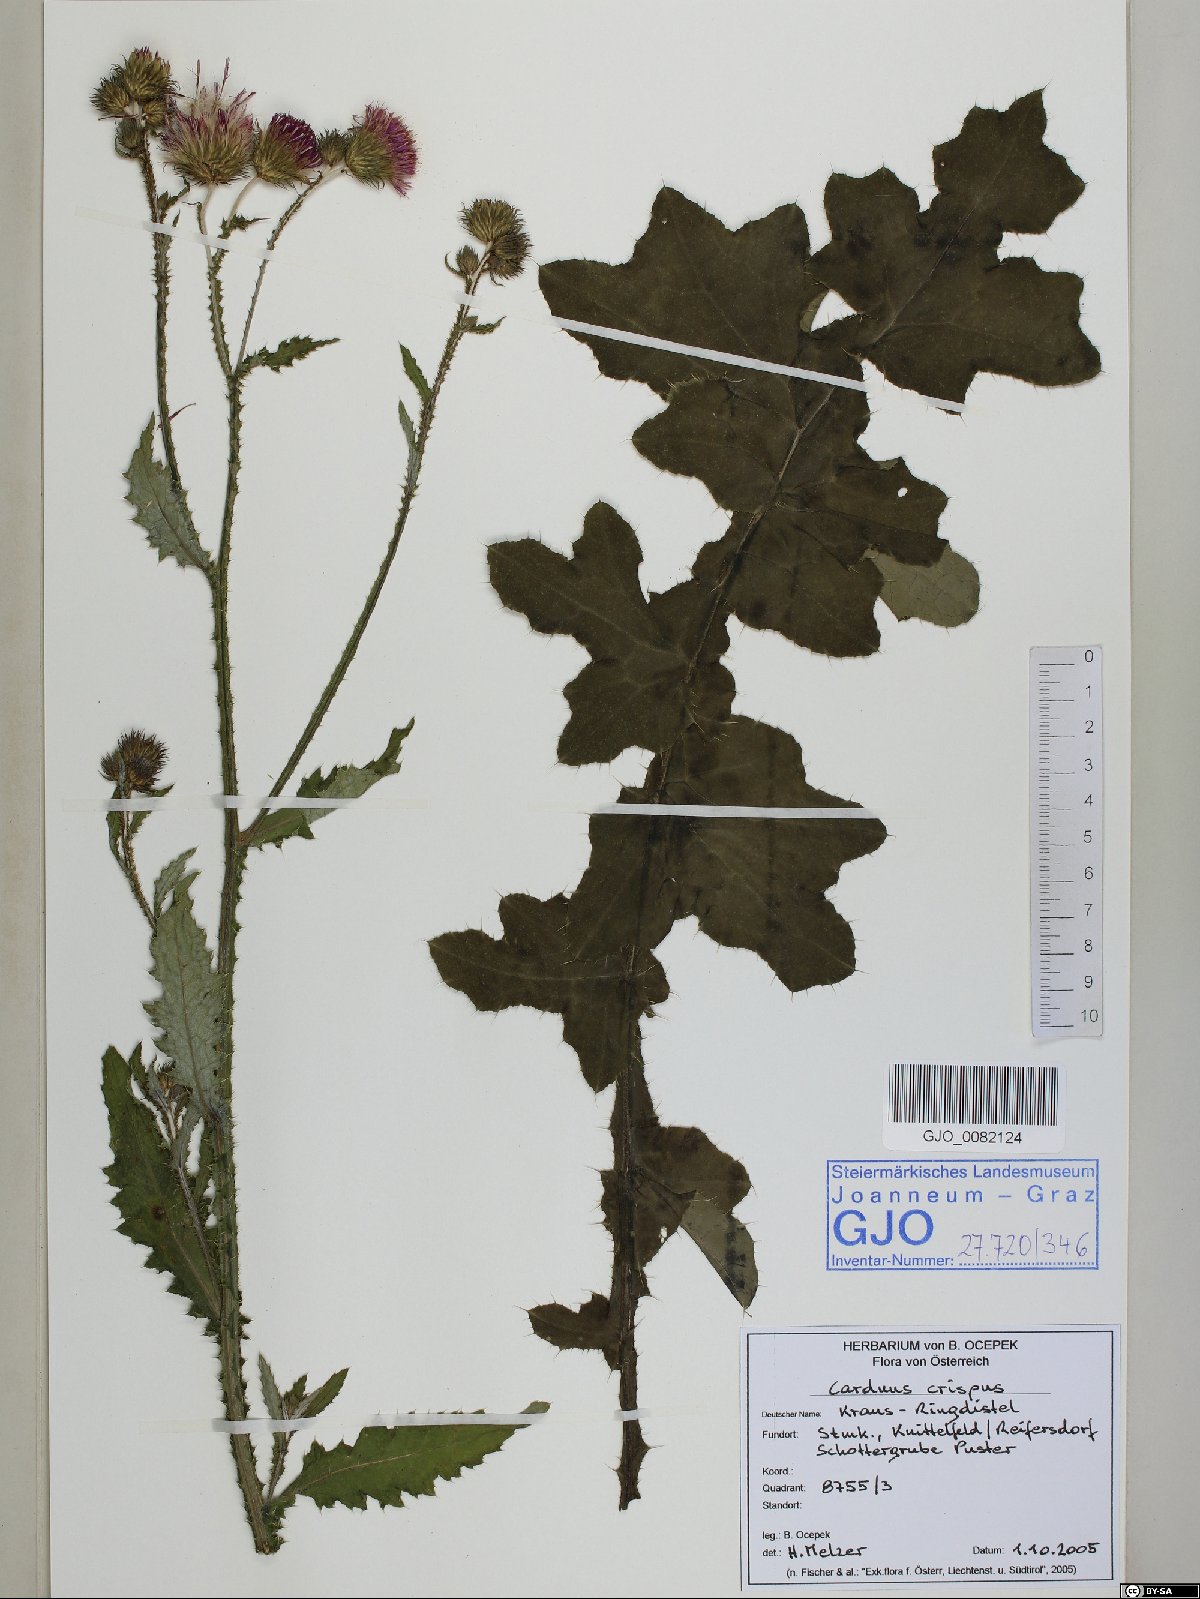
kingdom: Plantae
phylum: Tracheophyta
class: Magnoliopsida
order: Asterales
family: Asteraceae
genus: Carduus
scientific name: Carduus crispus
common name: Welted thistle
